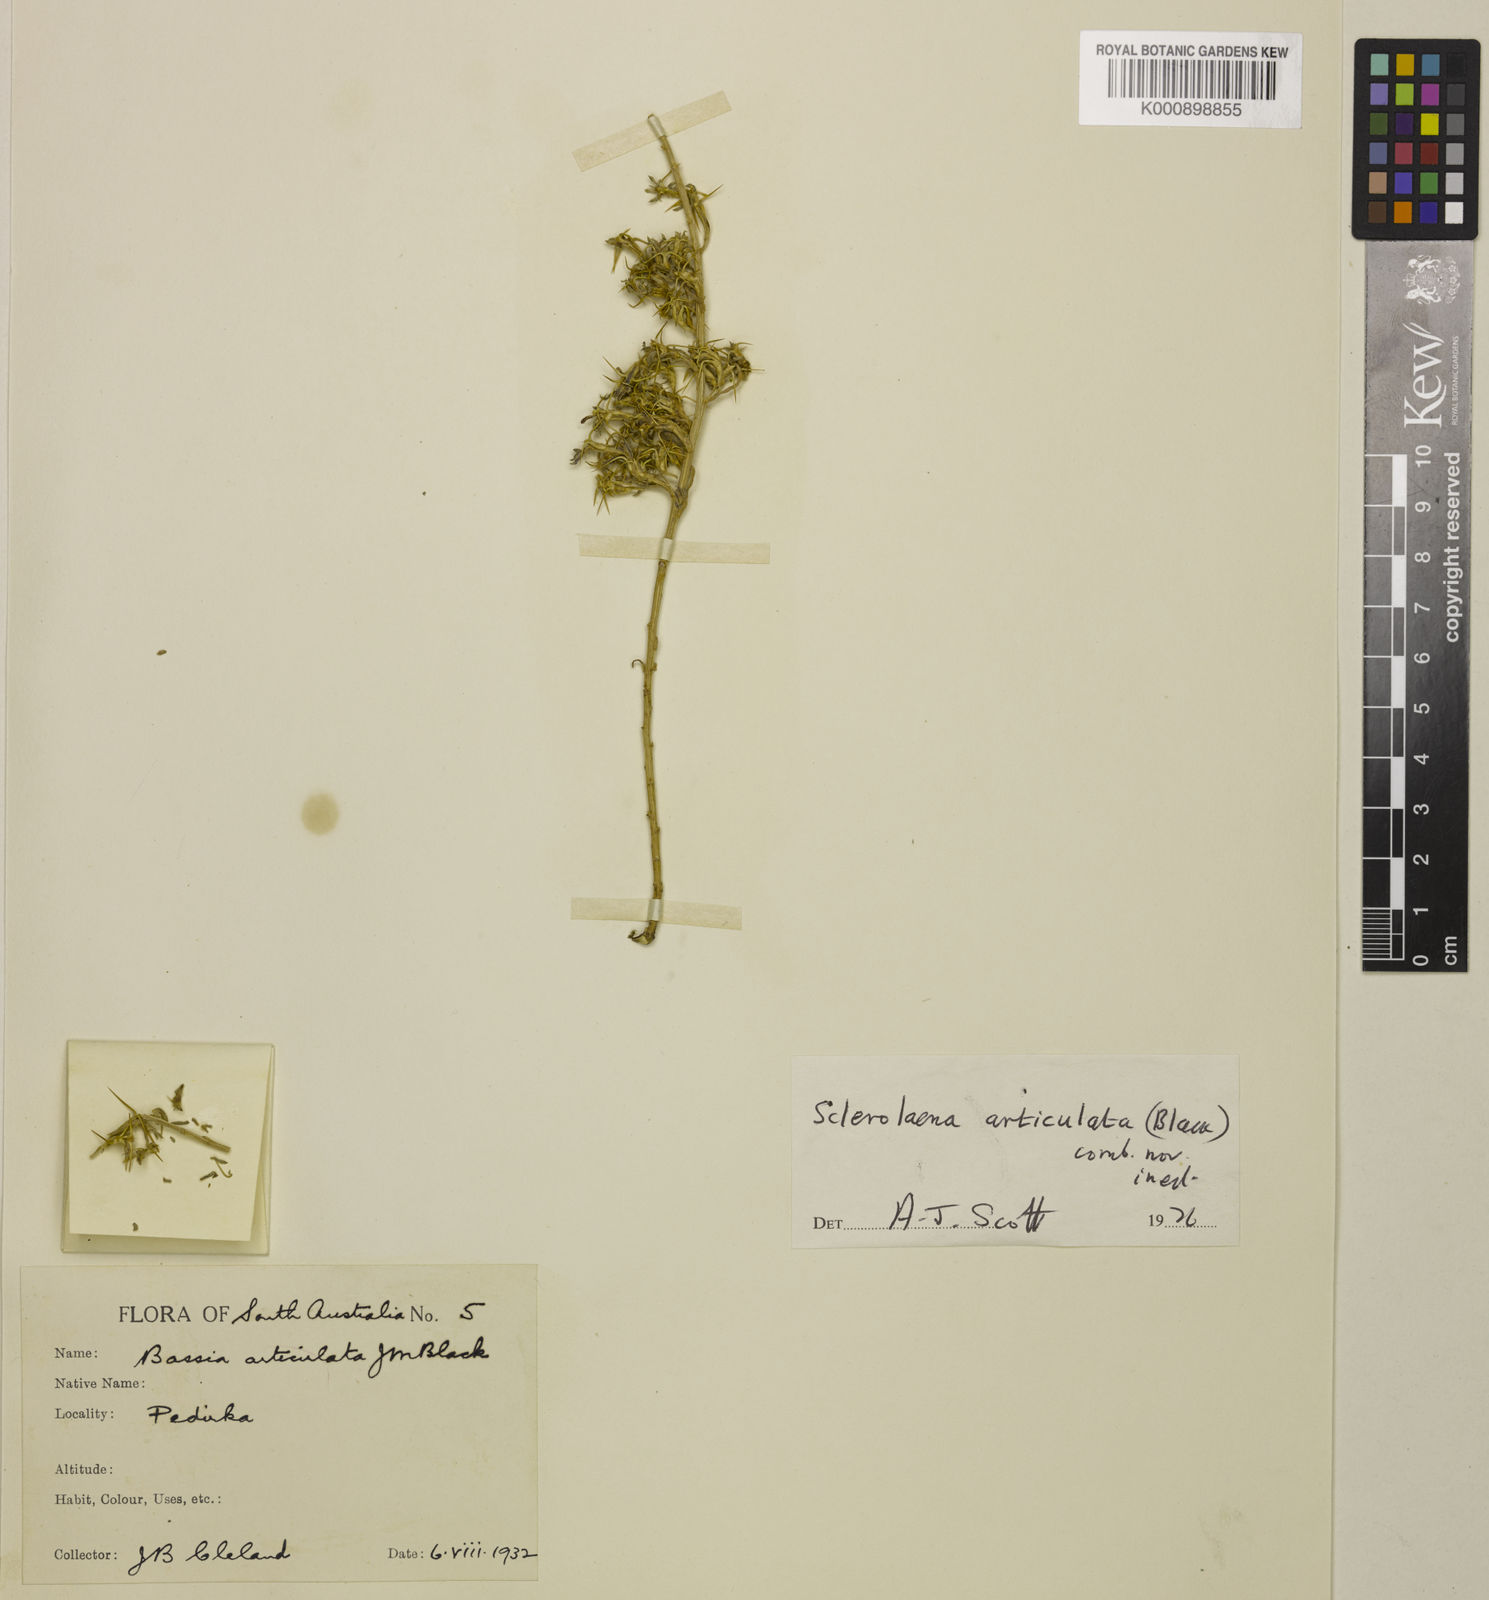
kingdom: Plantae
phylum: Tracheophyta
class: Magnoliopsida
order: Caryophyllales
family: Amaranthaceae
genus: Sclerolaena
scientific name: Sclerolaena articulata
